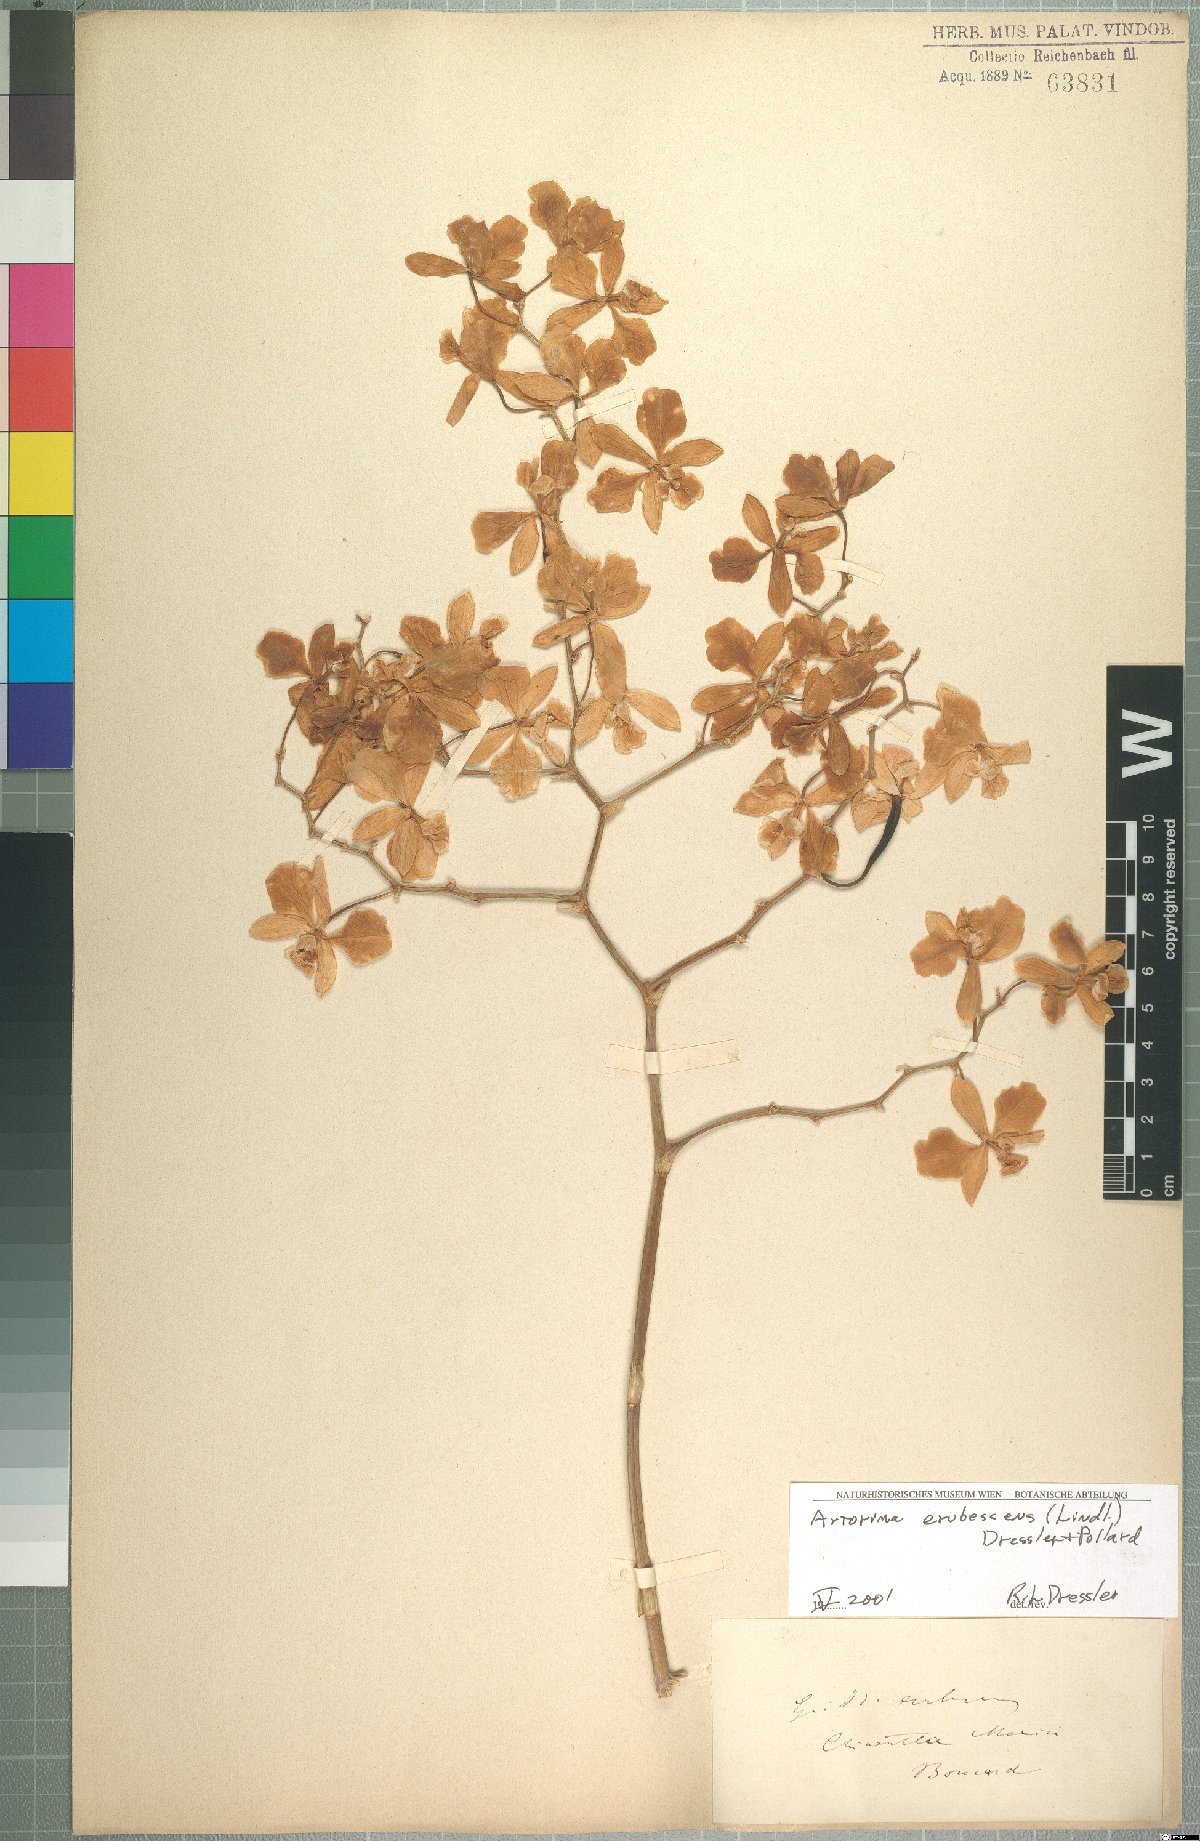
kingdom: Plantae
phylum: Tracheophyta
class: Liliopsida
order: Asparagales
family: Orchidaceae
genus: Artorima
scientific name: Artorima erubescens
